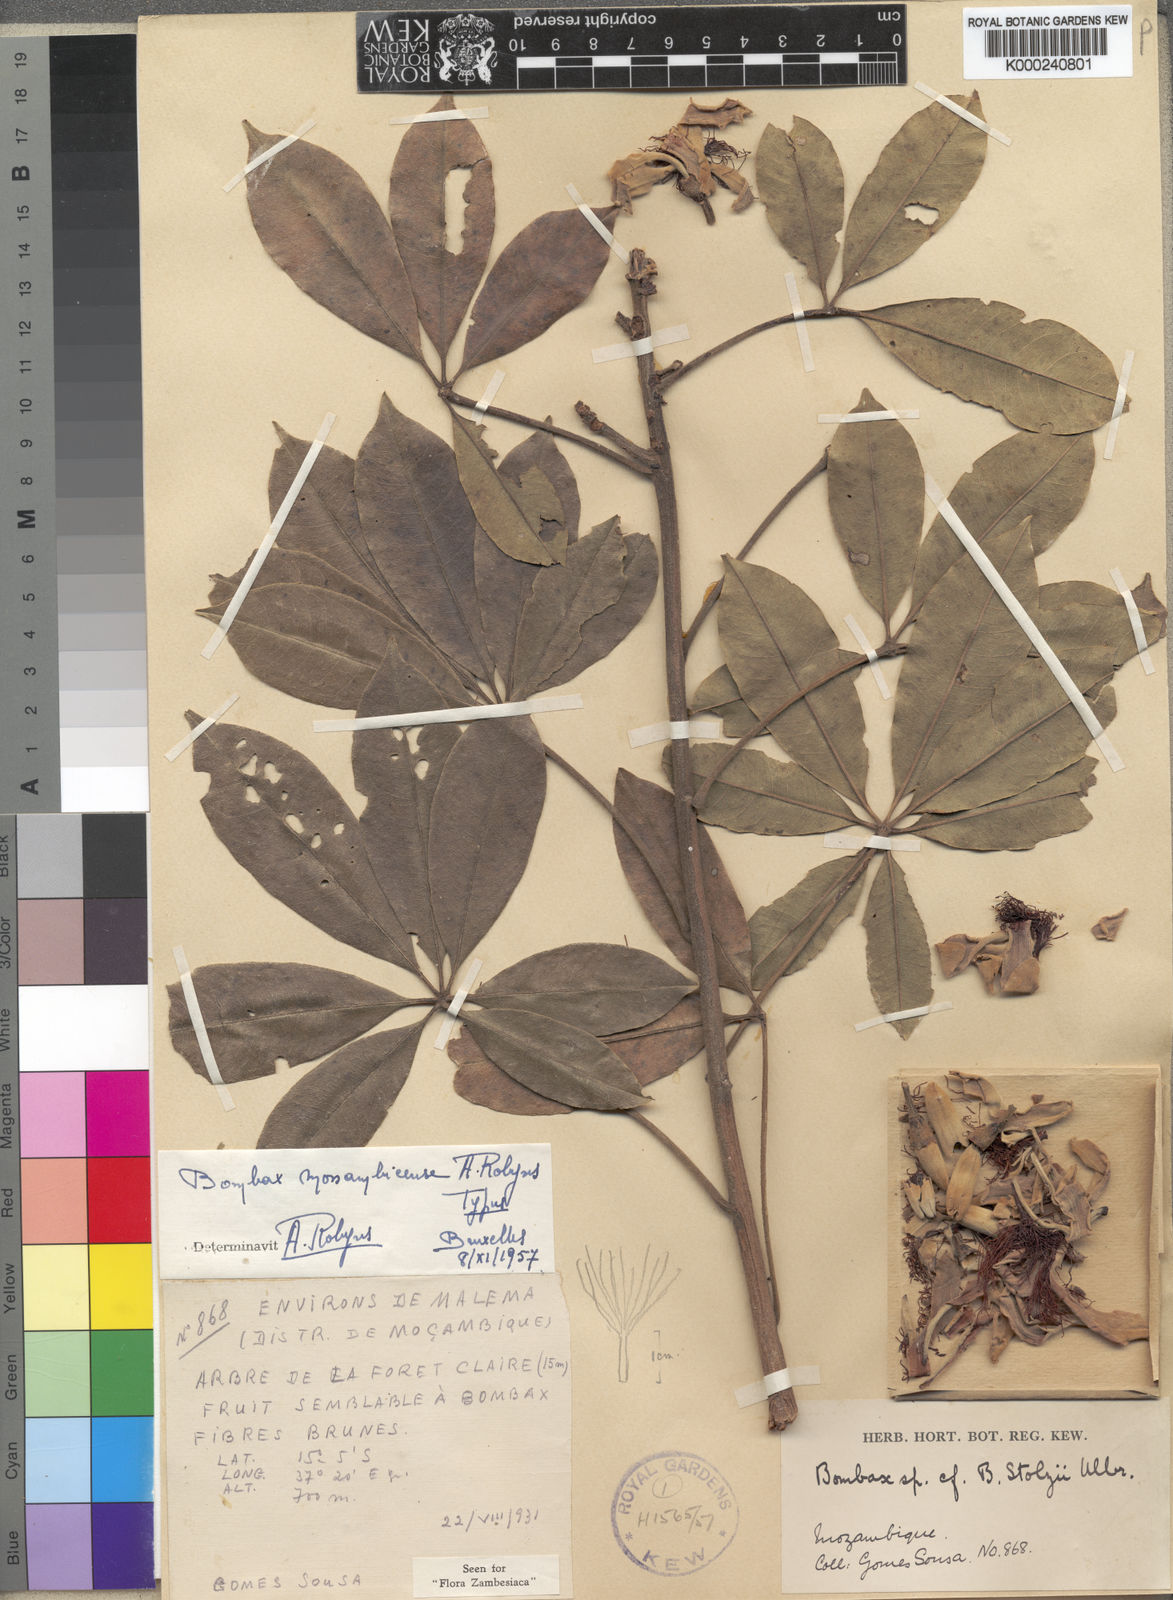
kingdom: Plantae
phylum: Tracheophyta
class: Magnoliopsida
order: Malvales
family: Malvaceae
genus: Rhodognaphalon
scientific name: Rhodognaphalon stolzii
